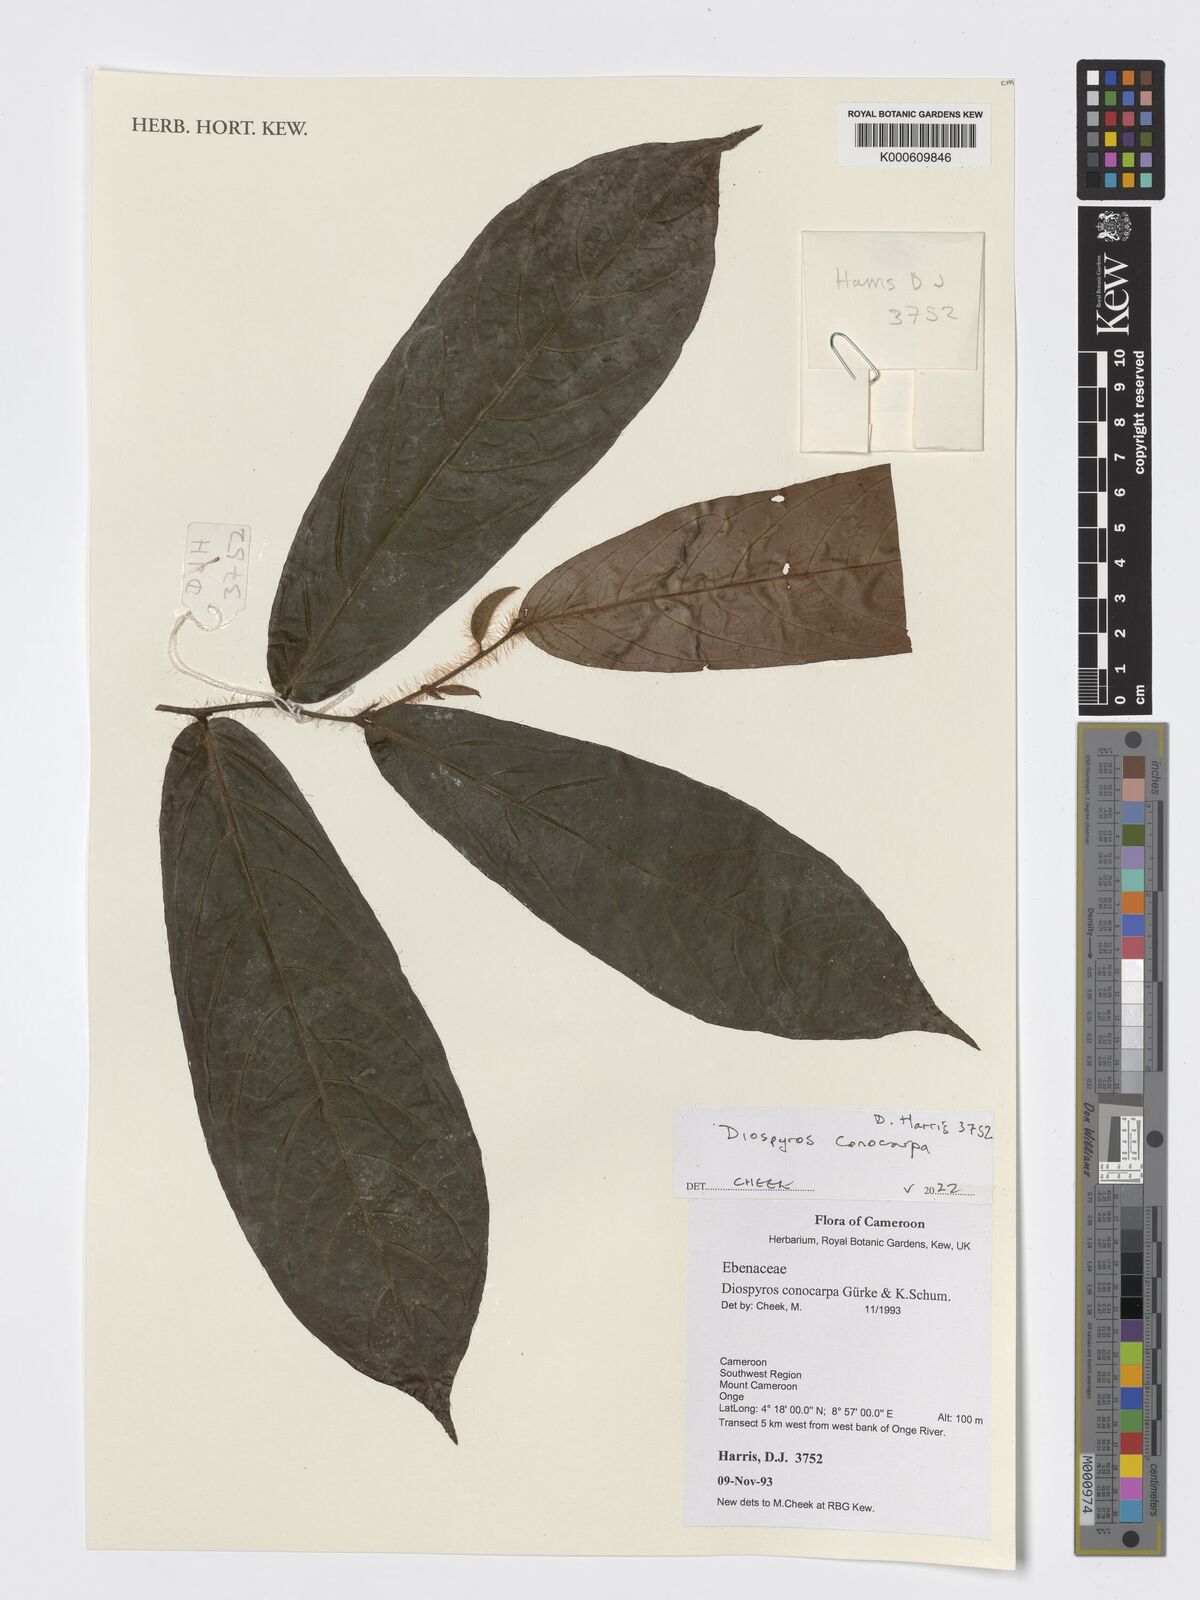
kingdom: Plantae
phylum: Tracheophyta
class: Magnoliopsida
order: Ericales
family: Ebenaceae
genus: Diospyros
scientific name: Diospyros conocarpa
